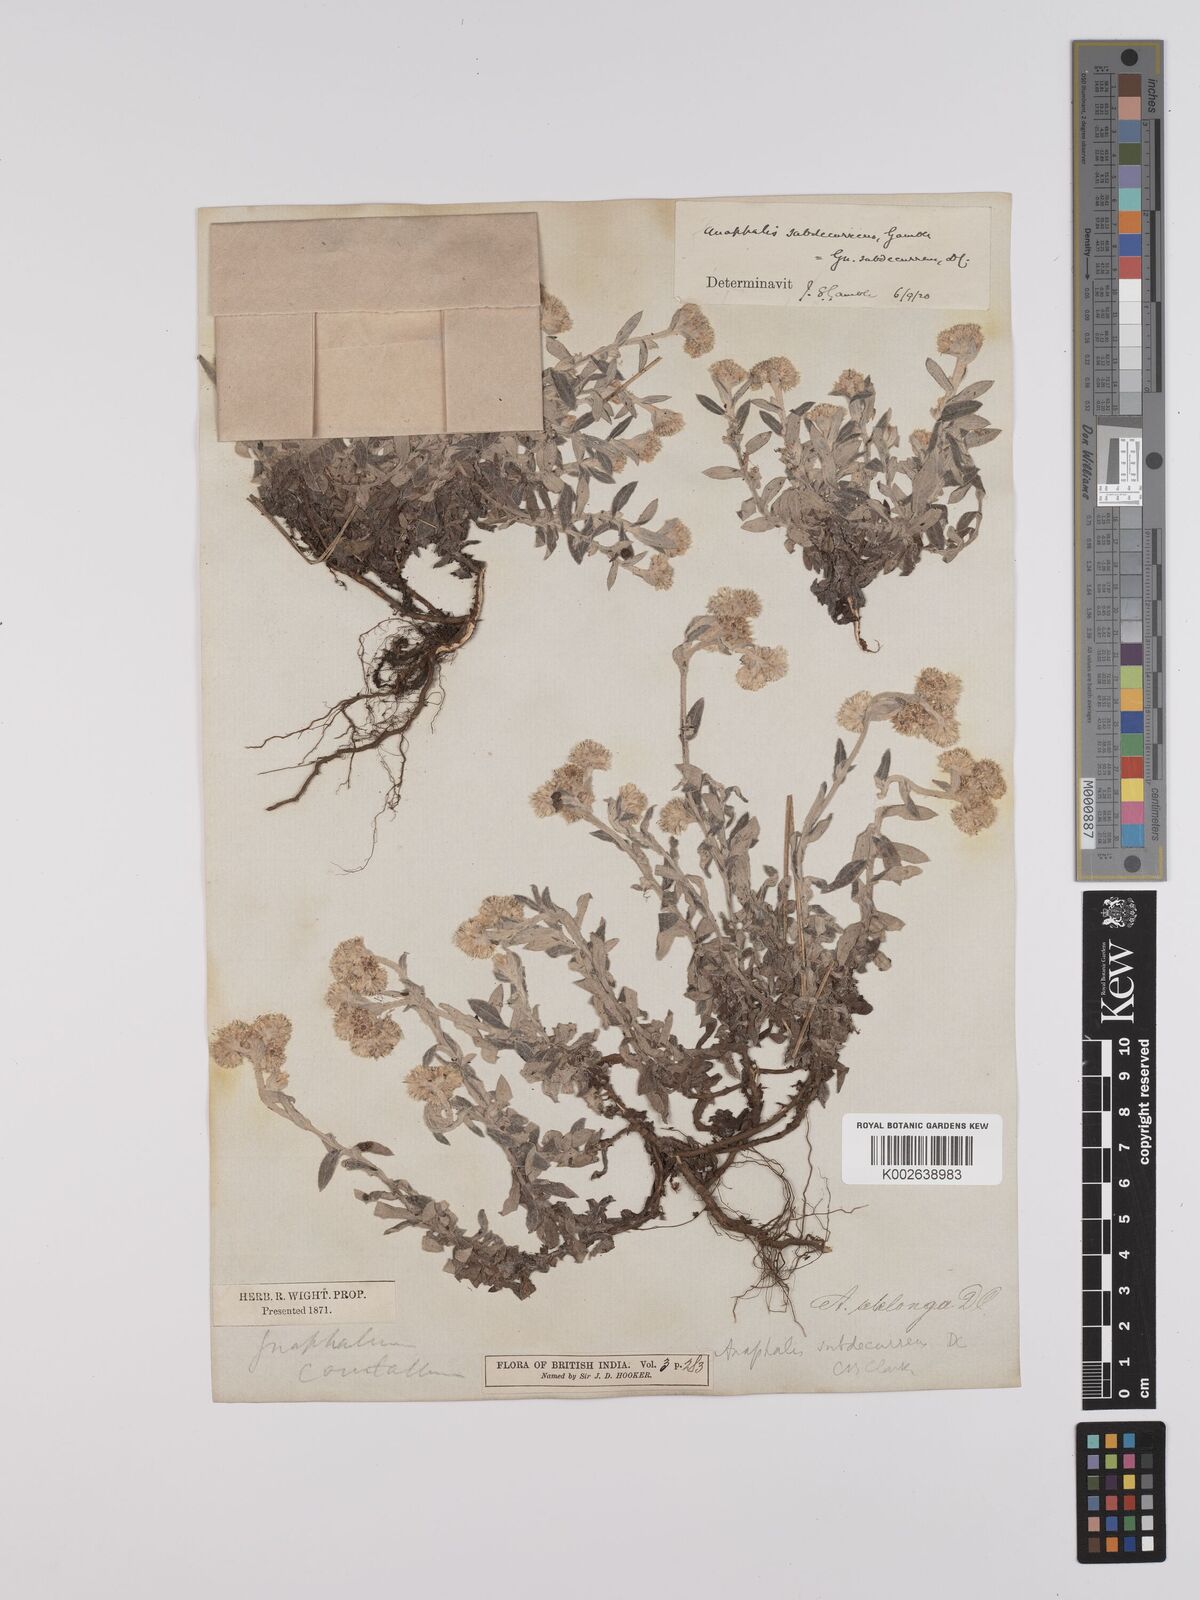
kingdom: Plantae
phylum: Tracheophyta
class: Magnoliopsida
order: Asterales
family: Asteraceae
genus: Anaphalis
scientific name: Anaphalis subdecurrens
